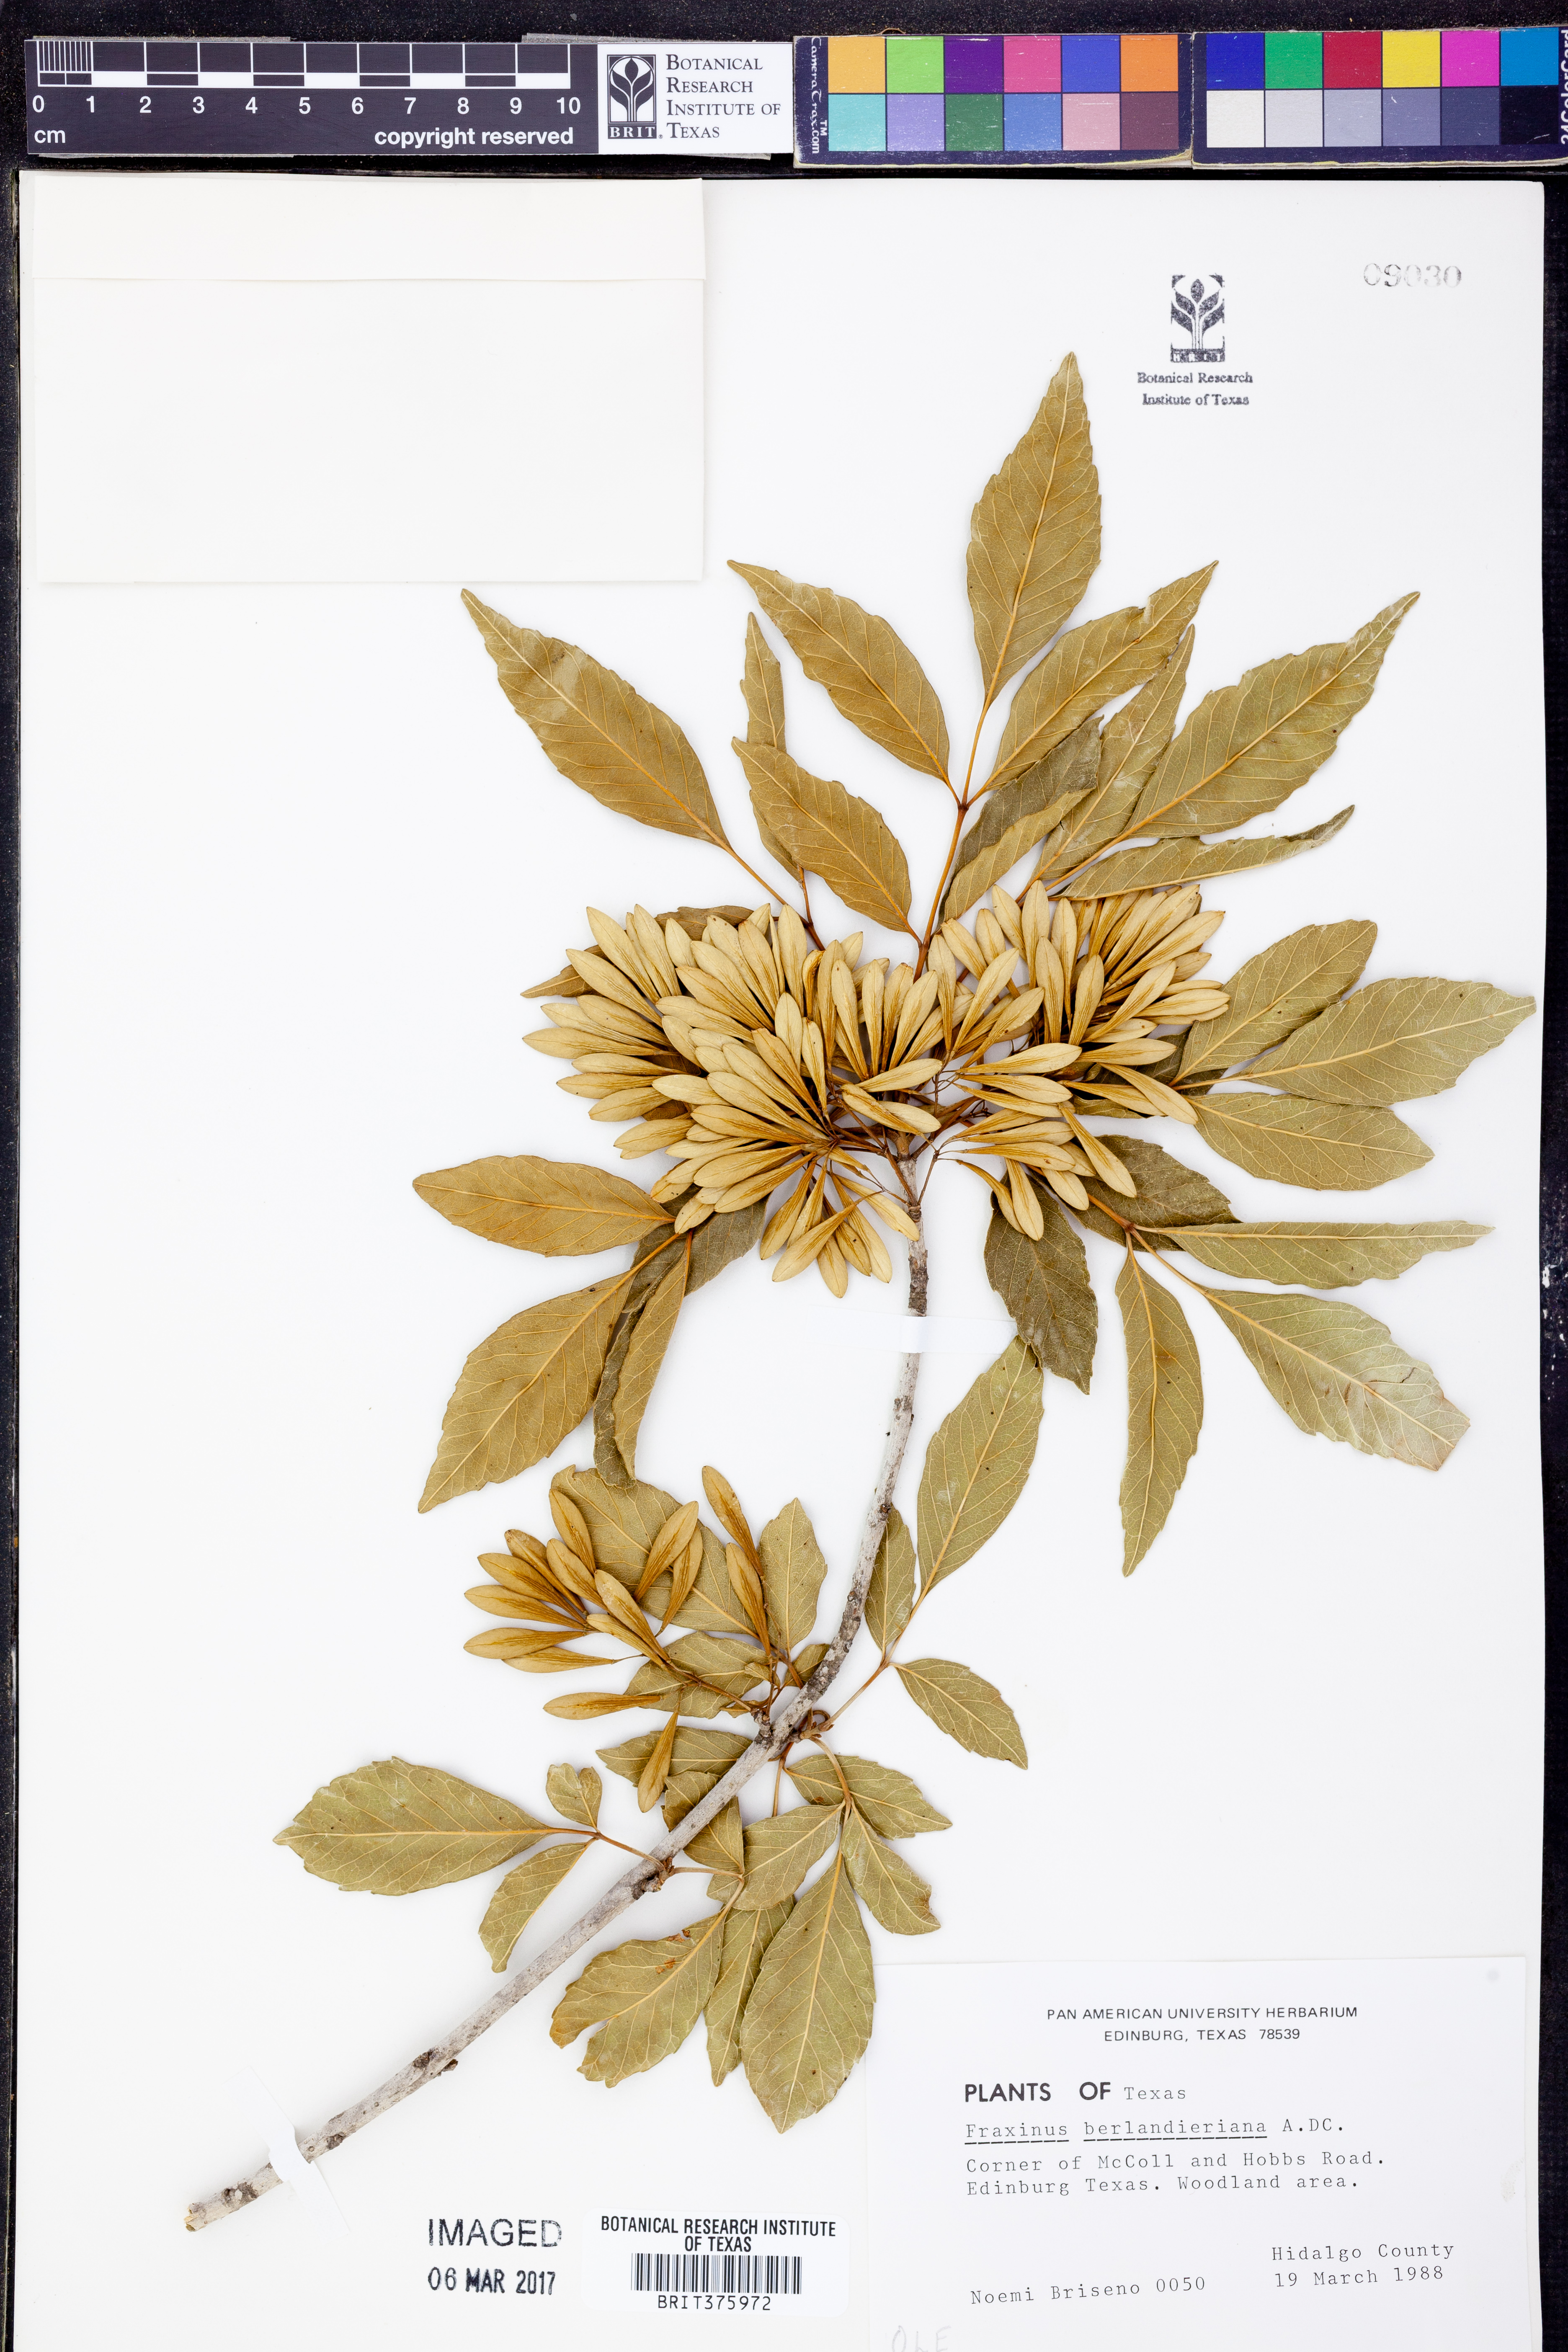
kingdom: Plantae
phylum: Tracheophyta
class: Magnoliopsida
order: Lamiales
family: Oleaceae
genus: Fraxinus
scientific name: Fraxinus berlandieriana
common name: Berlandier ash
